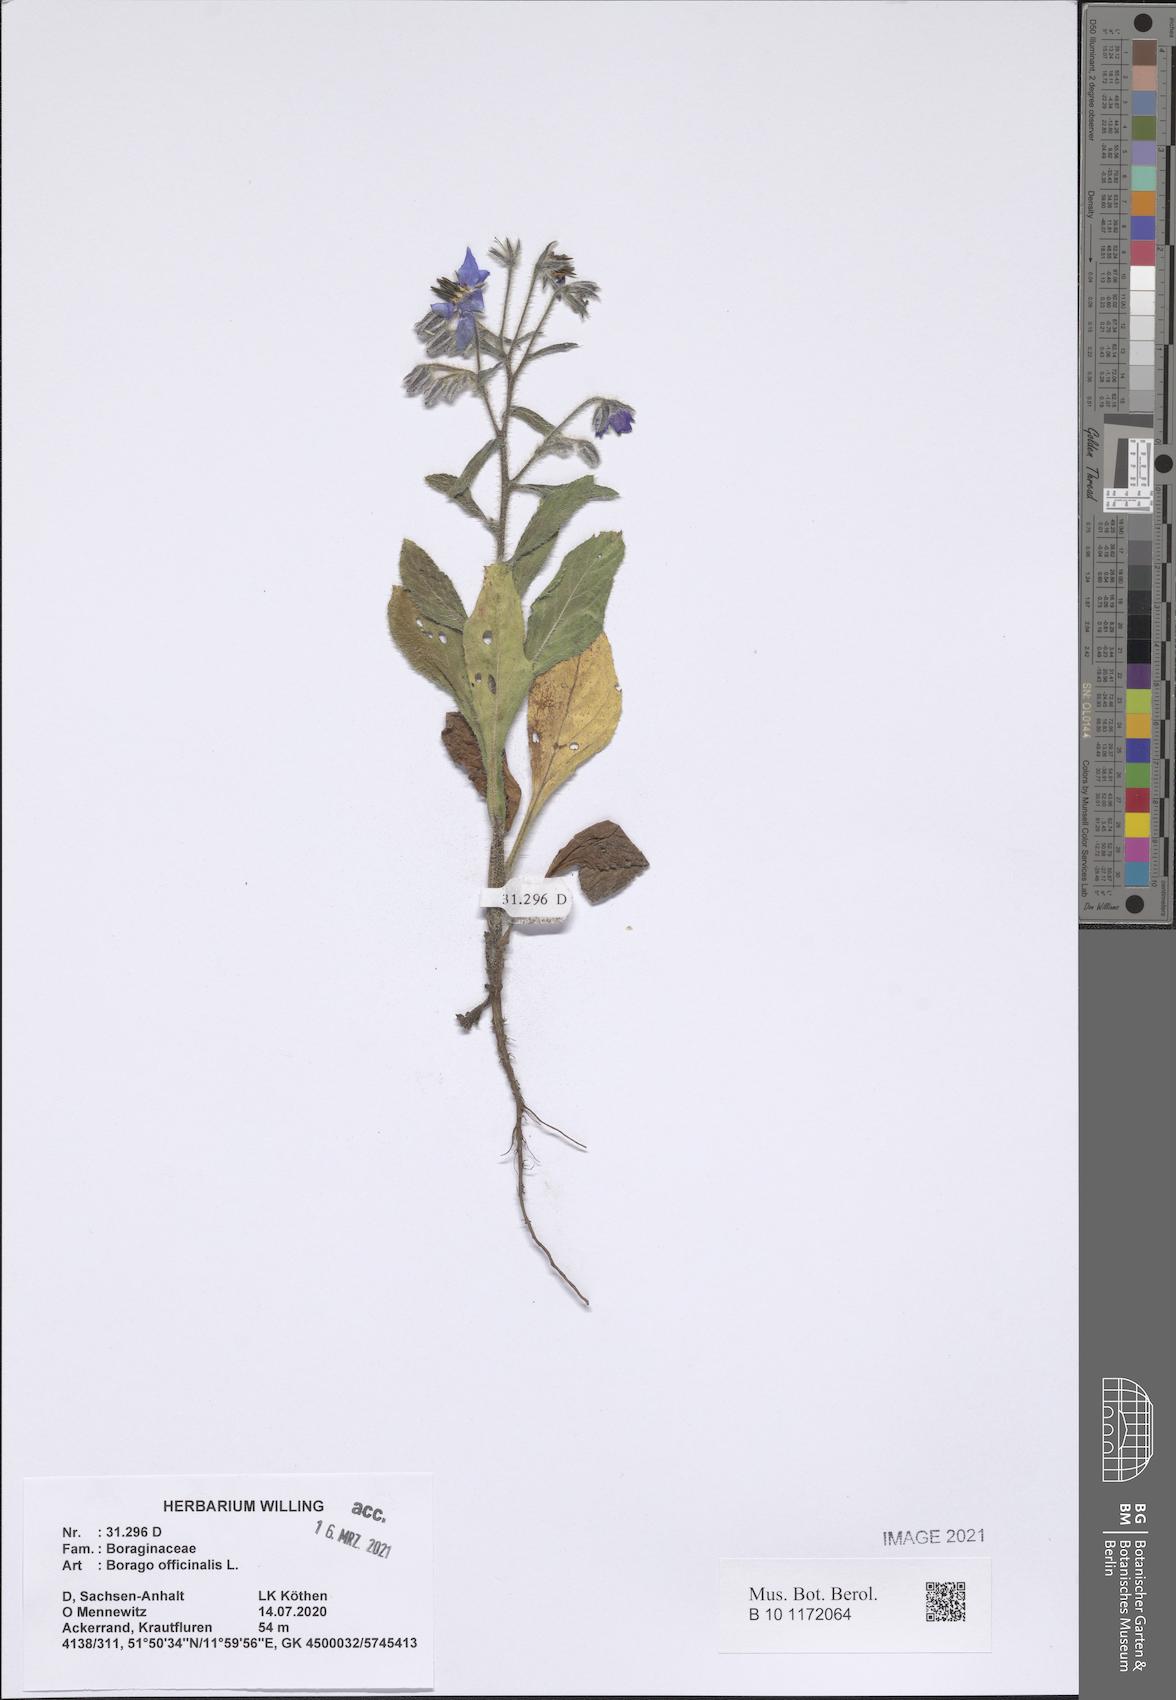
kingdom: Plantae
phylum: Tracheophyta
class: Magnoliopsida
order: Boraginales
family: Boraginaceae
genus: Borago
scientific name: Borago officinalis
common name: Borage
